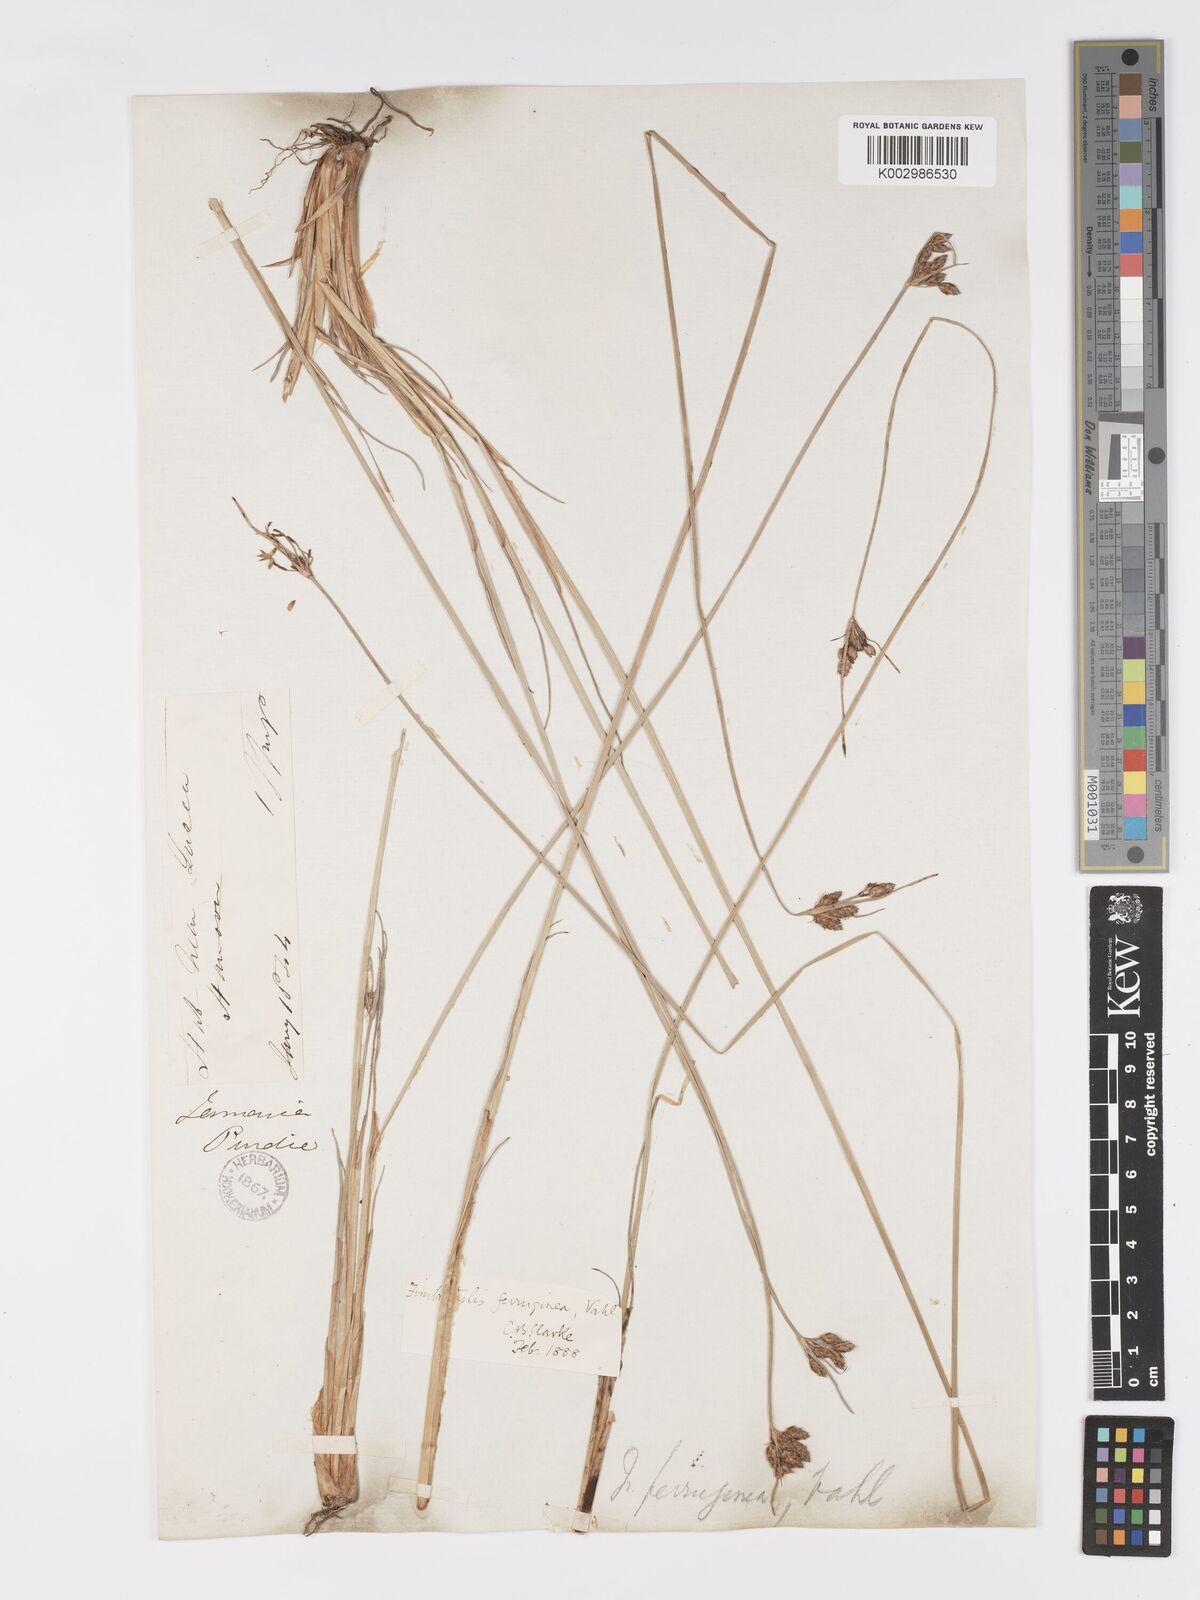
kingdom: Plantae
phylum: Tracheophyta
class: Liliopsida
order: Poales
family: Cyperaceae
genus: Fimbristylis
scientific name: Fimbristylis ferruginea
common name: West indian fimbry
